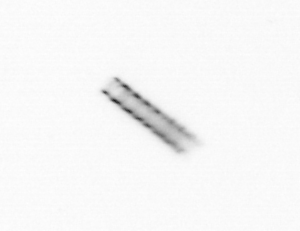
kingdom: Chromista
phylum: Ochrophyta
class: Bacillariophyceae
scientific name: Bacillariophyceae
